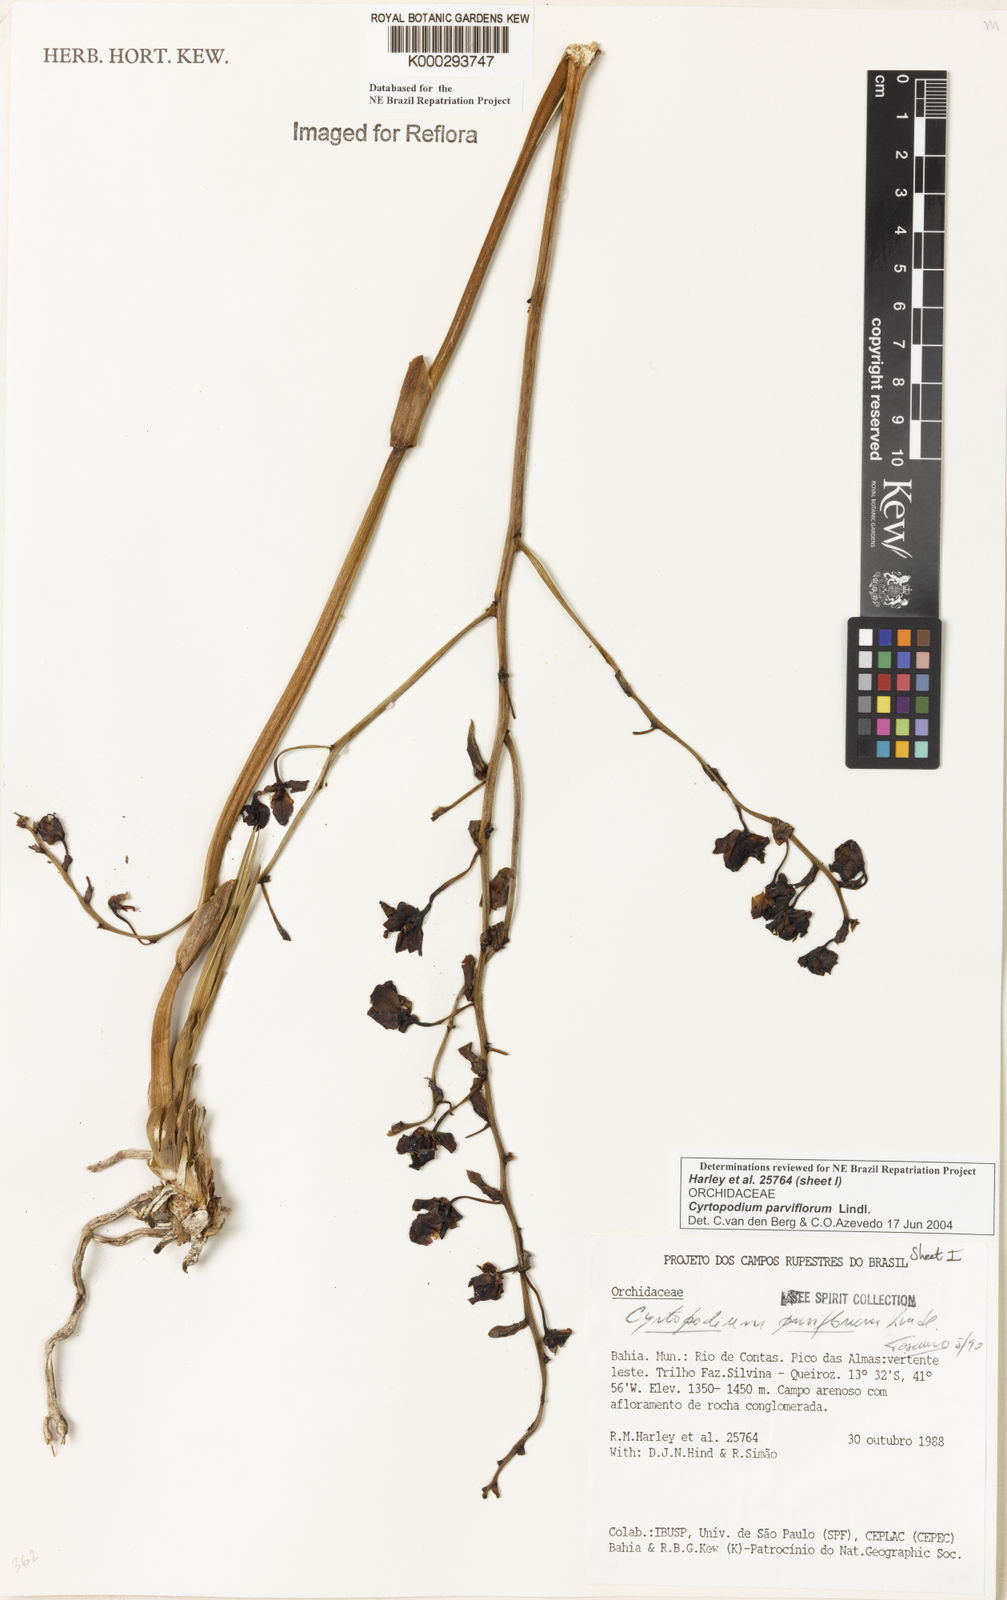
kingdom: Plantae
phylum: Tracheophyta
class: Liliopsida
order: Asparagales
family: Orchidaceae
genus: Cyrtopodium
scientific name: Cyrtopodium parviflorum
